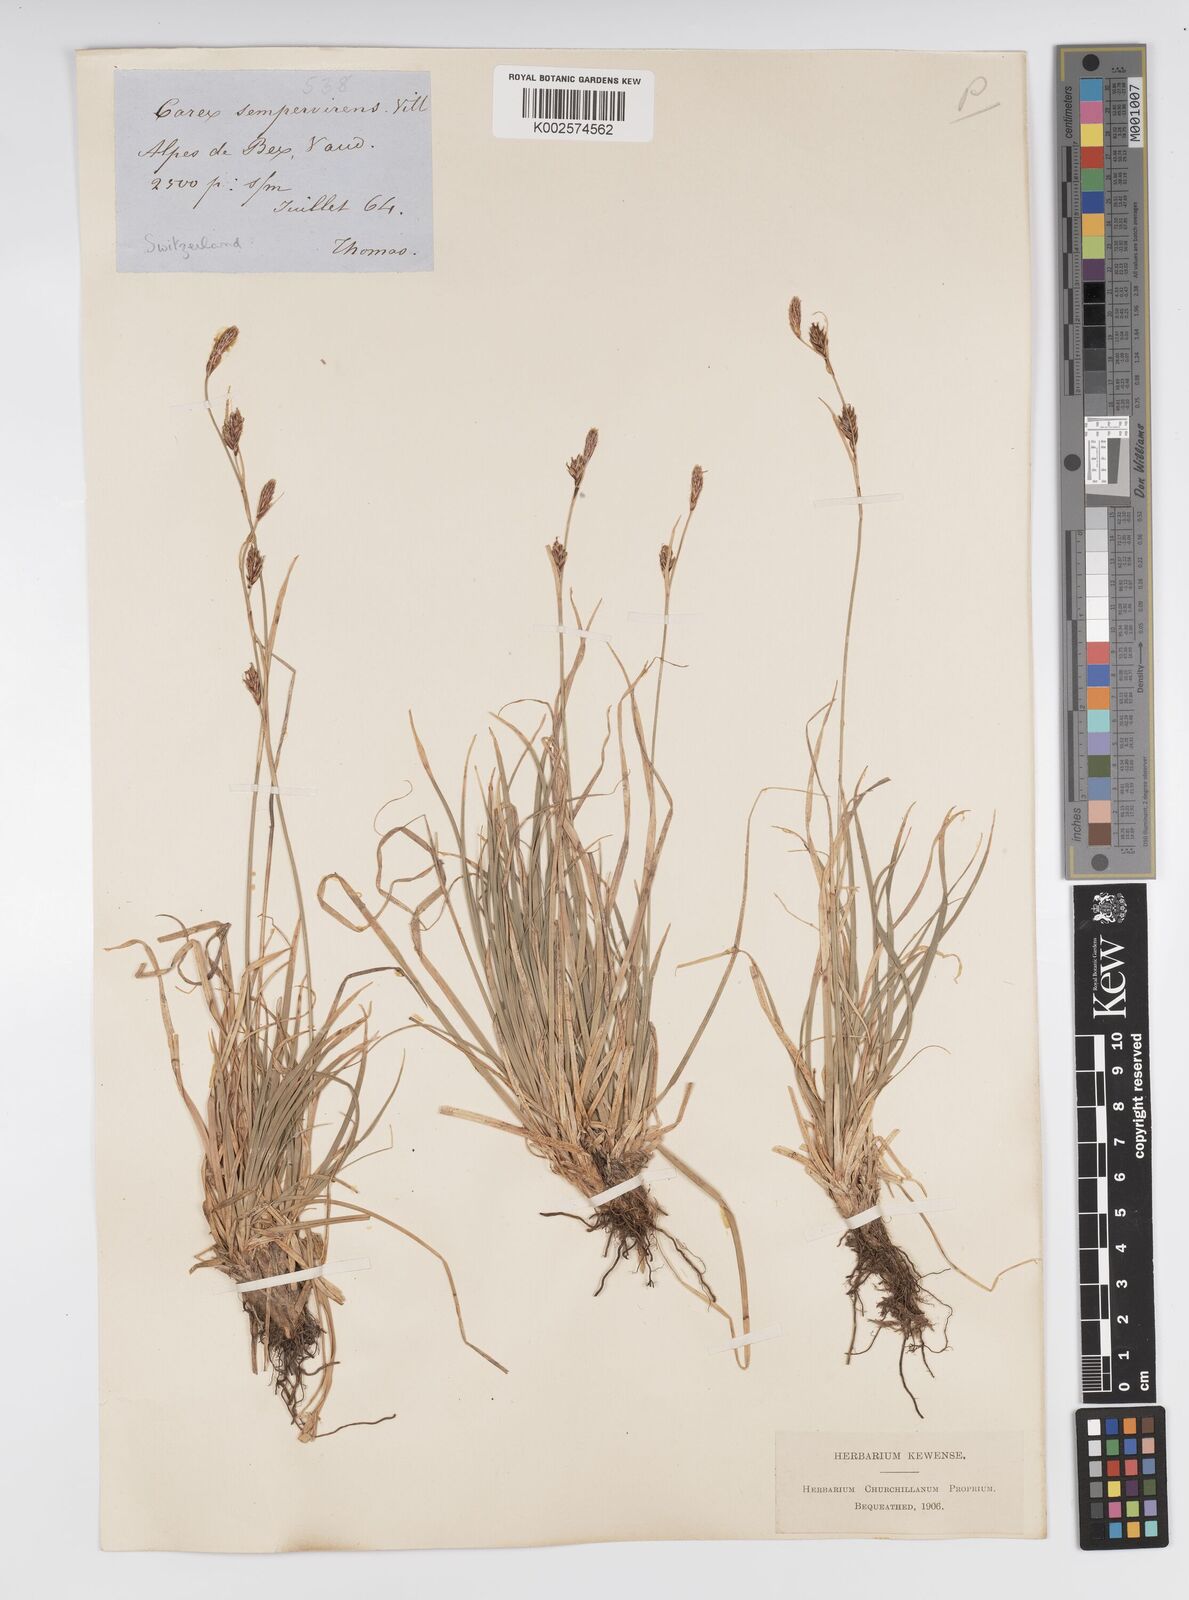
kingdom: Plantae
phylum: Tracheophyta
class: Liliopsida
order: Poales
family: Cyperaceae
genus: Carex
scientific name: Carex sempervirens
